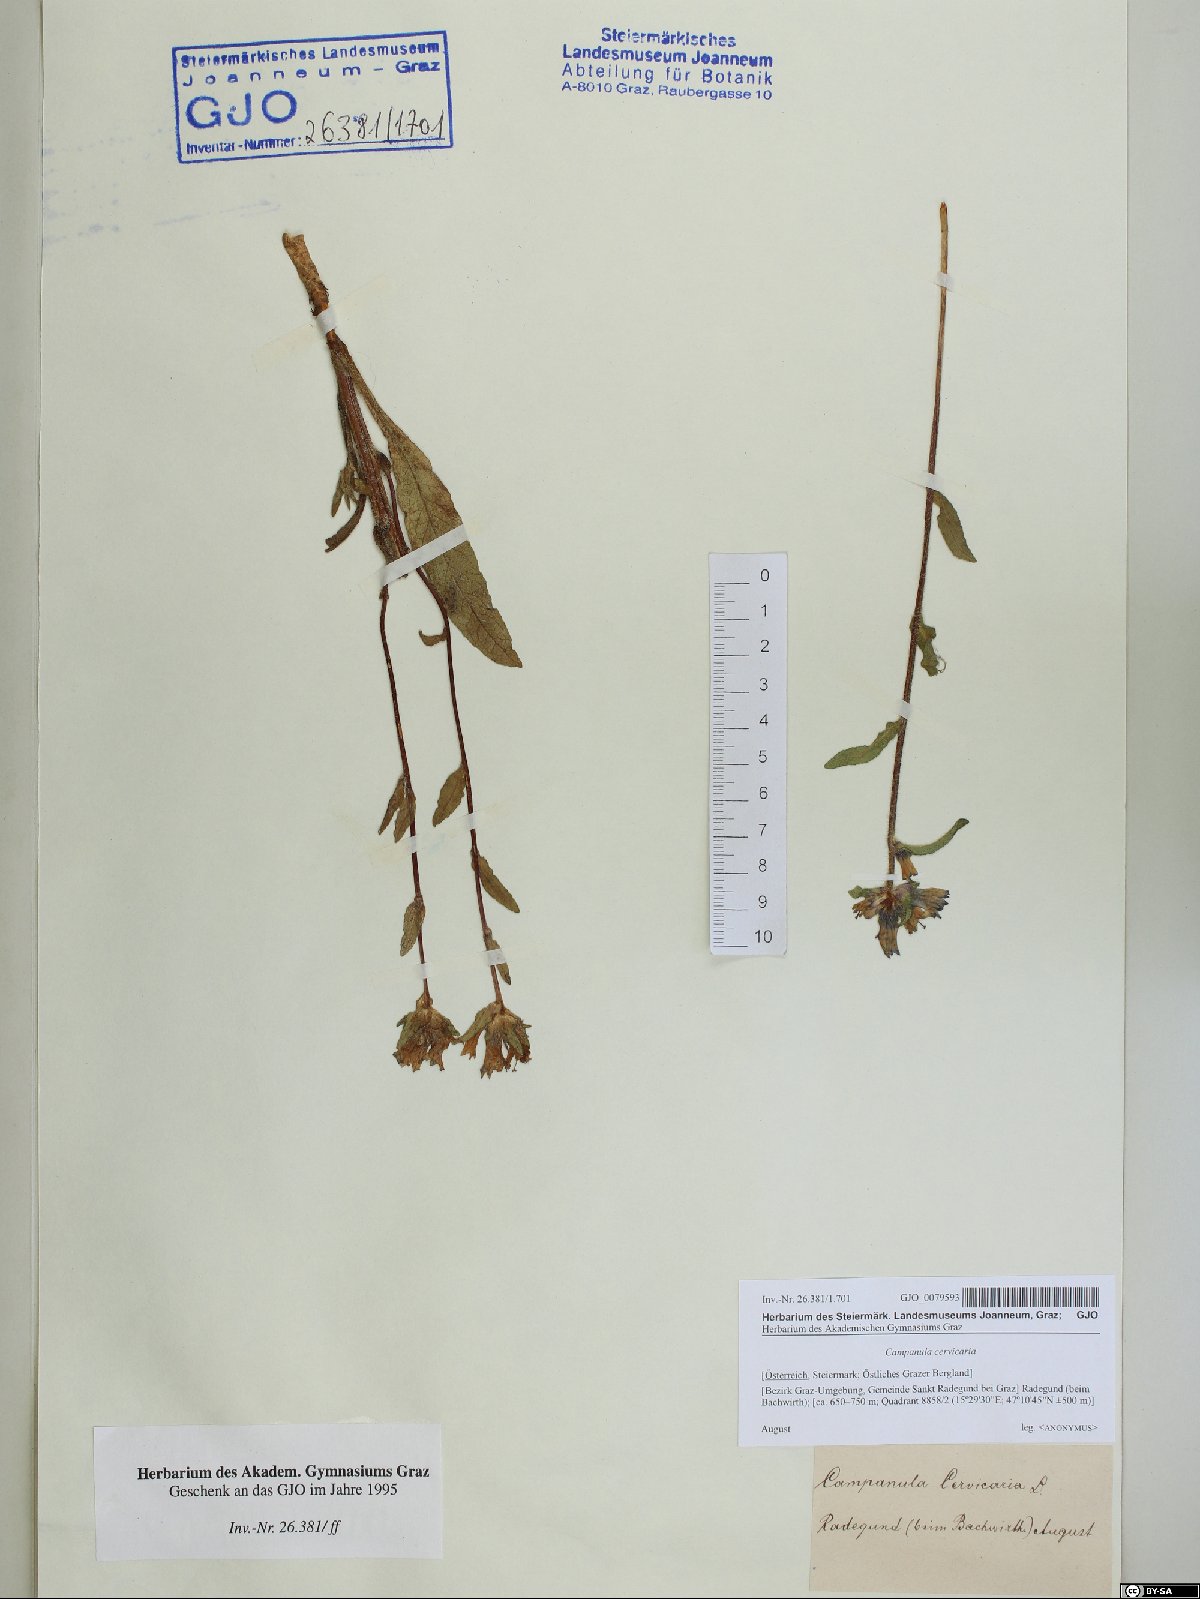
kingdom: Plantae
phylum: Tracheophyta
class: Magnoliopsida
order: Asterales
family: Campanulaceae
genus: Campanula
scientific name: Campanula cervicaria
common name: Bristly bellflower
